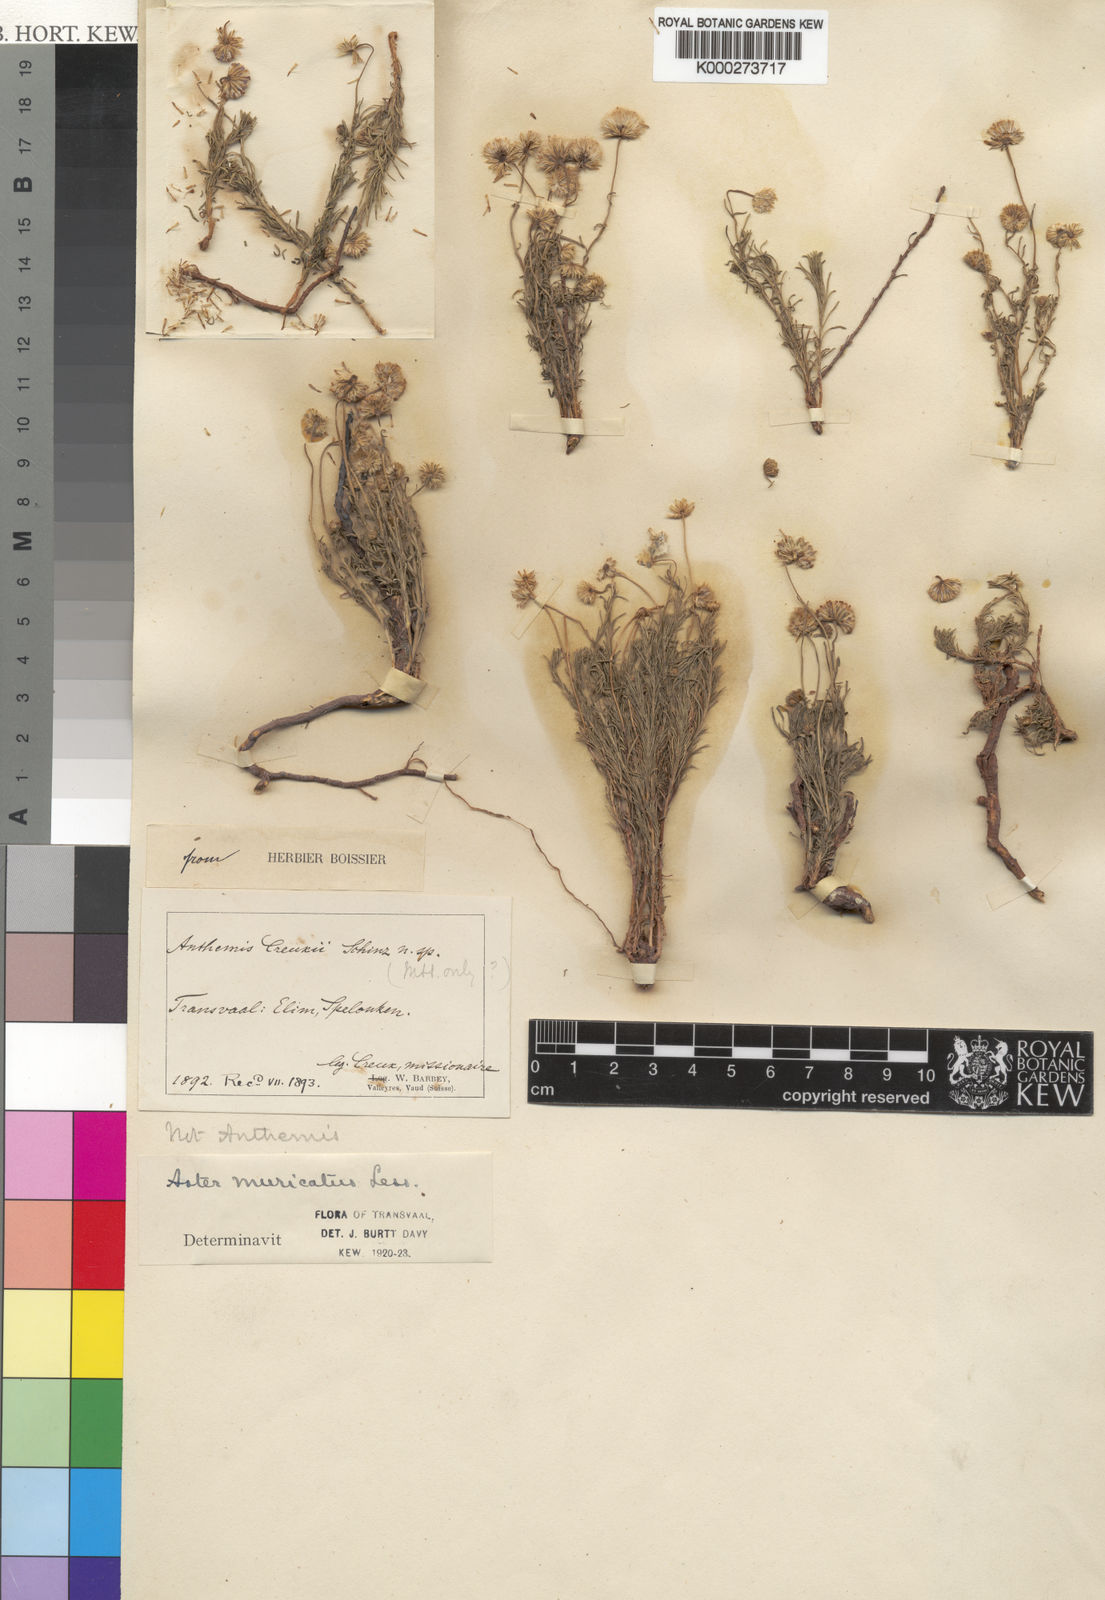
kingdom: Plantae
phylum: Tracheophyta
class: Magnoliopsida
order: Asterales
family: Asteraceae
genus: Felicia
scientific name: Felicia muricata
